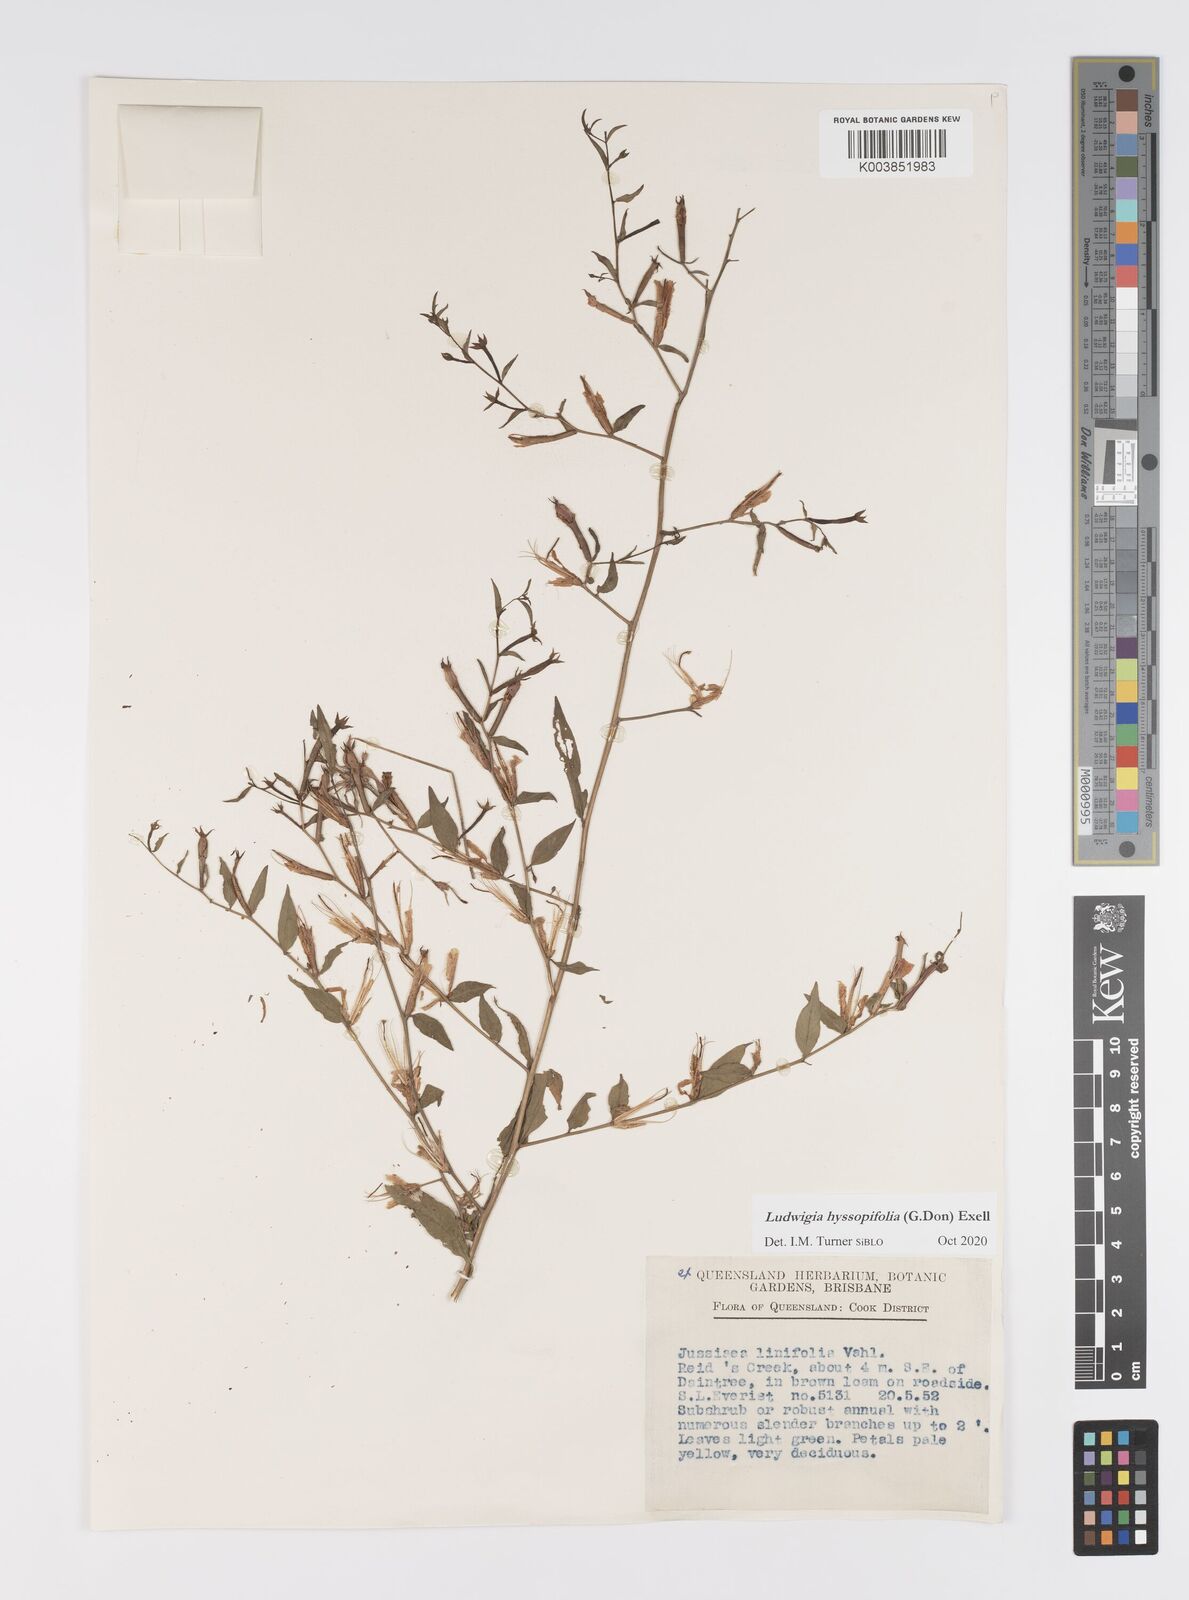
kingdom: Plantae
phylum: Tracheophyta
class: Magnoliopsida
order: Myrtales
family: Onagraceae
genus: Ludwigia
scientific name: Ludwigia hyssopifolia
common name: Linear leaf water primrose
